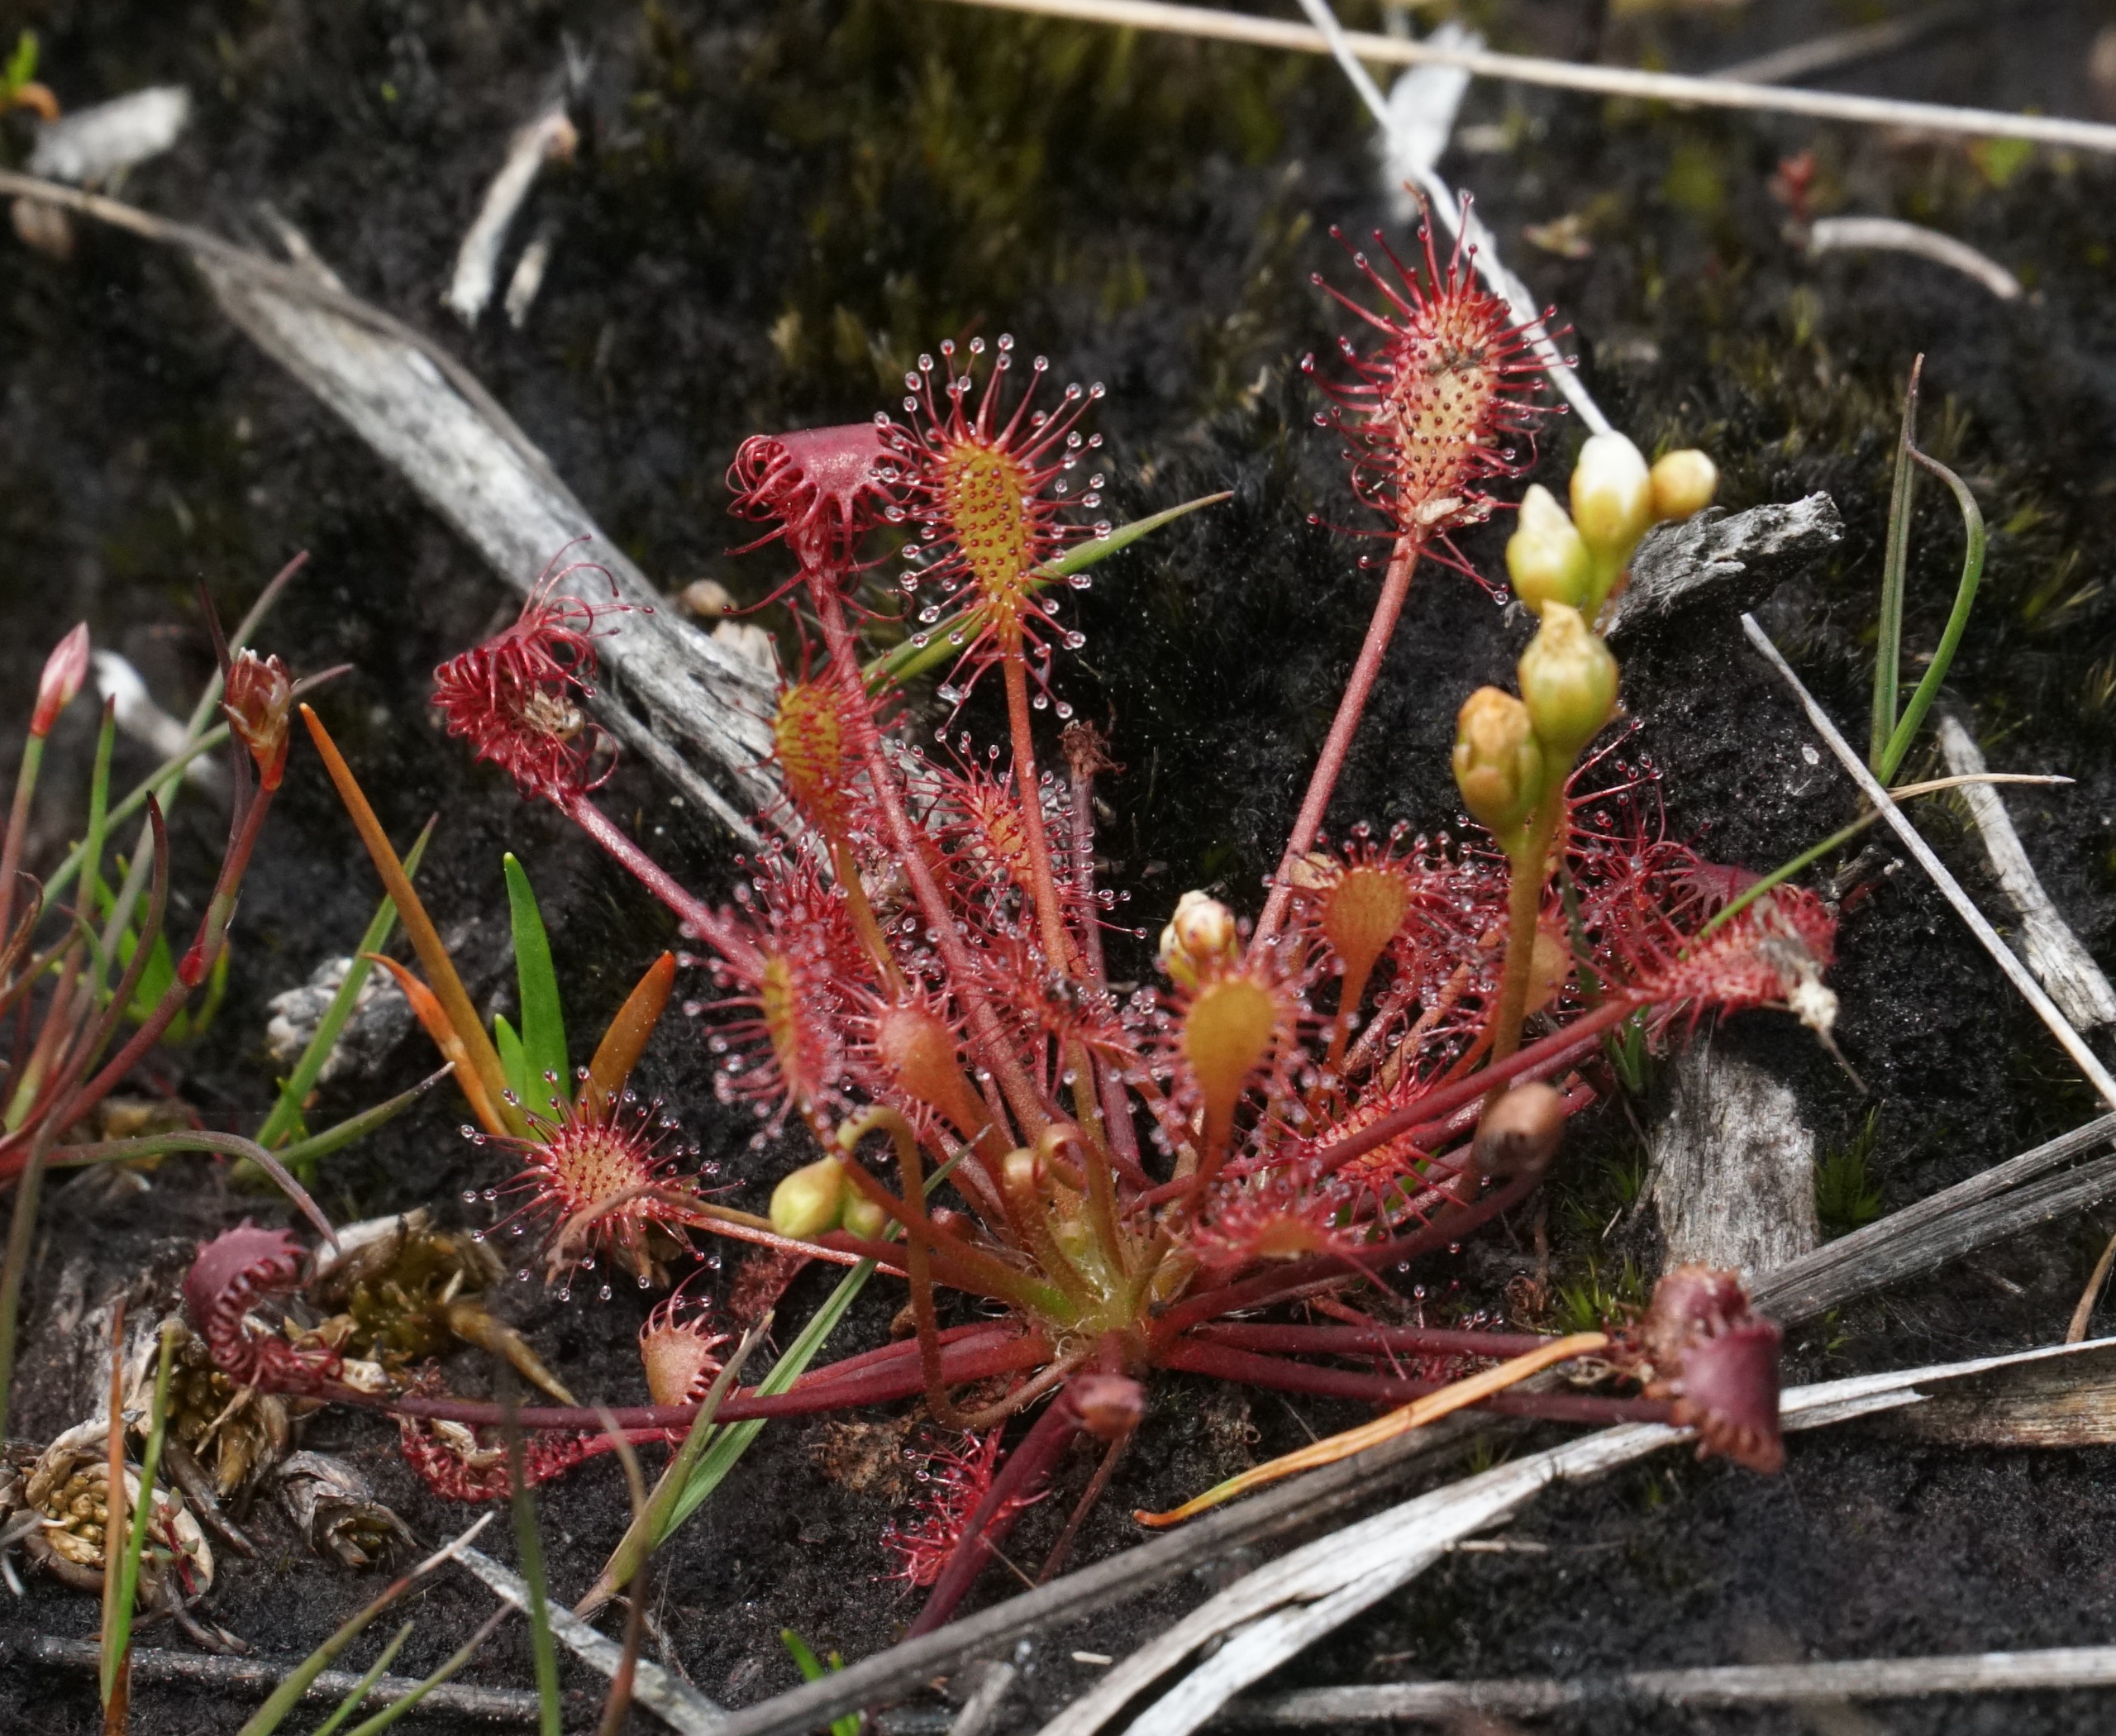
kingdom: Plantae
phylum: Tracheophyta
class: Magnoliopsida
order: Caryophyllales
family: Droseraceae
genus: Drosera
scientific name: Drosera intermedia
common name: Liden soldug
